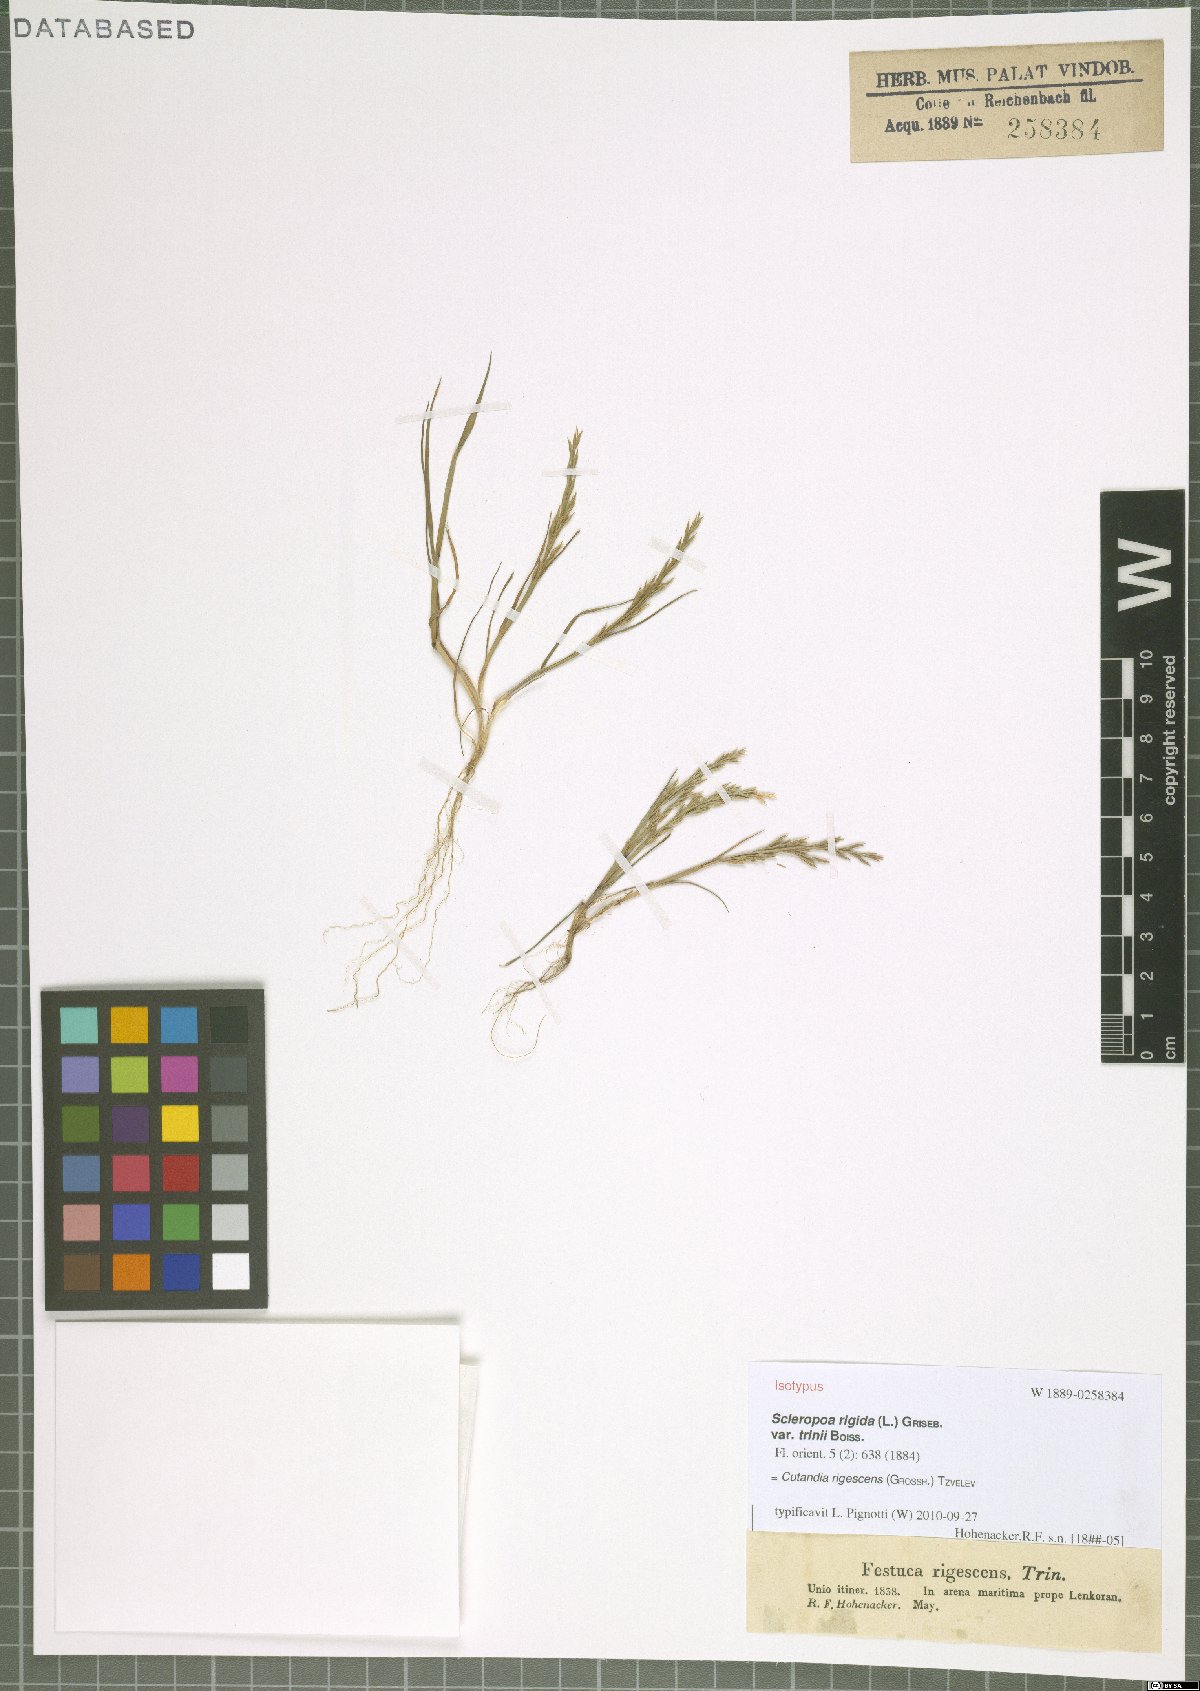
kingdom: Plantae
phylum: Tracheophyta
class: Liliopsida
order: Poales
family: Poaceae
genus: Cutandia
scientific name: Cutandia rigescens
